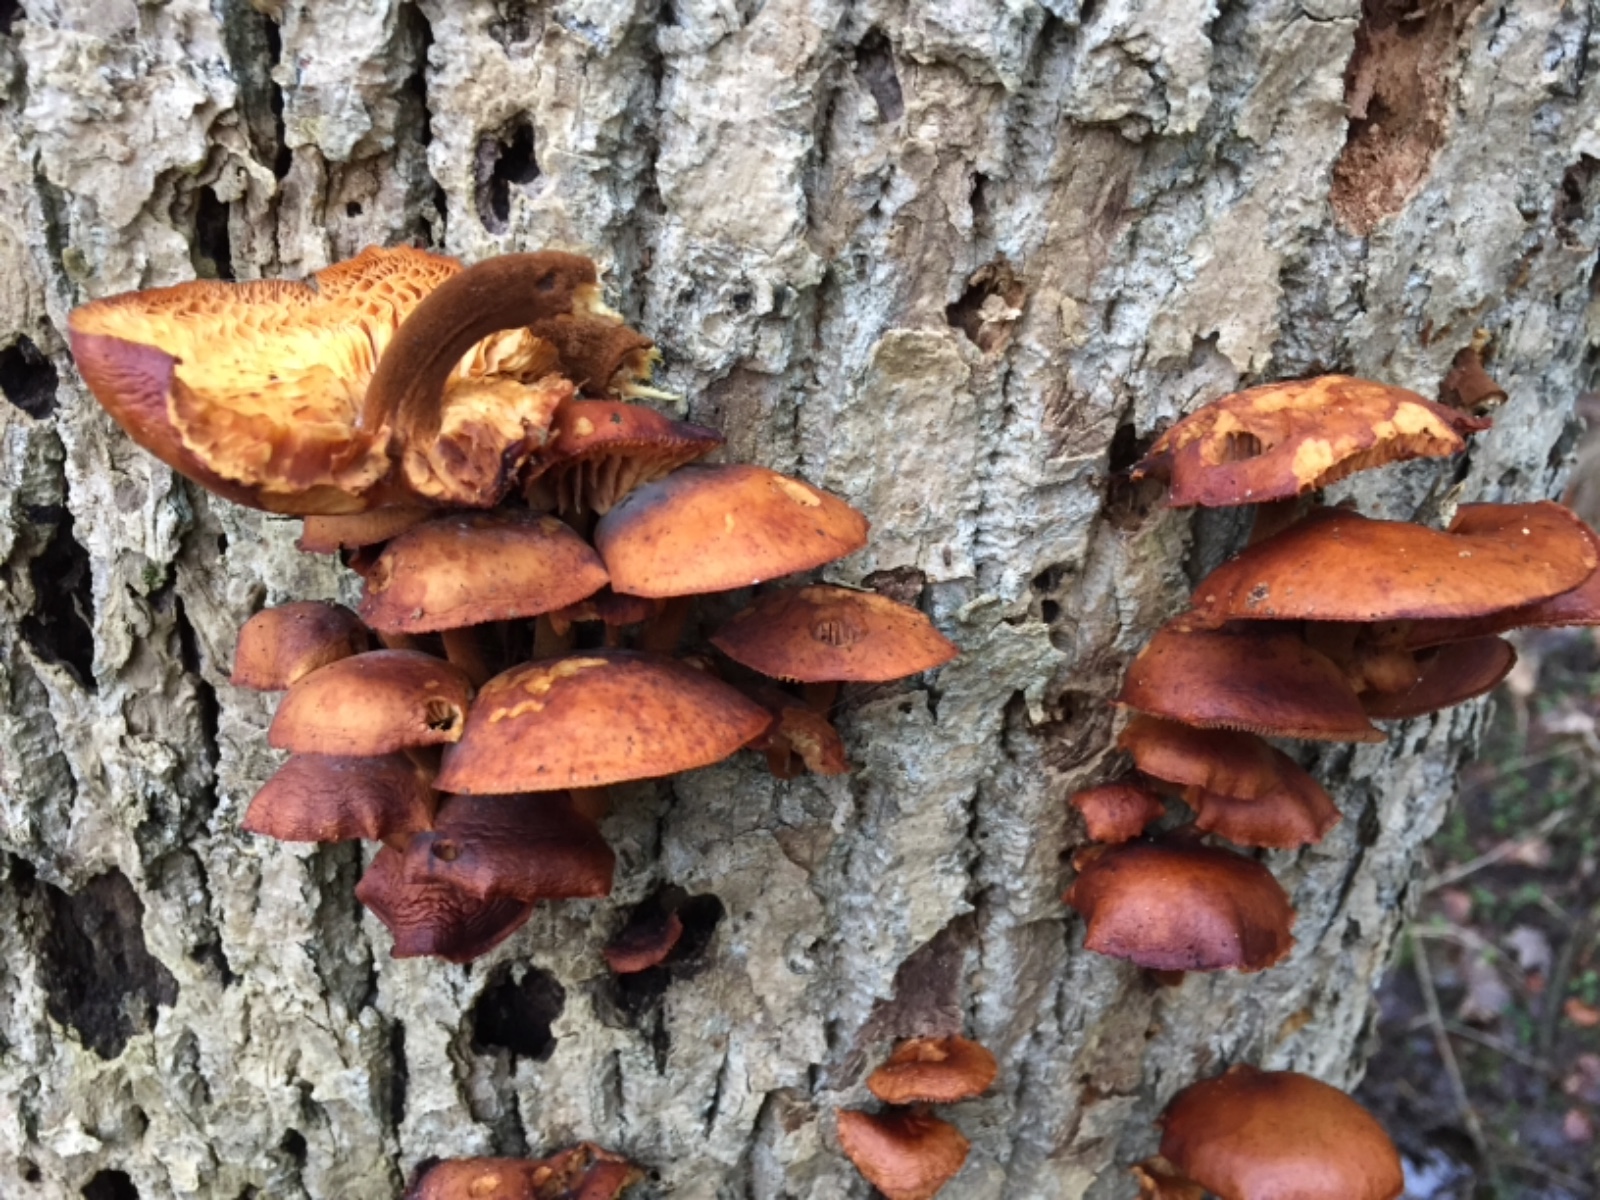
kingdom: Fungi
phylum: Basidiomycota
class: Agaricomycetes
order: Agaricales
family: Physalacriaceae
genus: Flammulina
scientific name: Flammulina velutipes
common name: gul fløjlsfod
